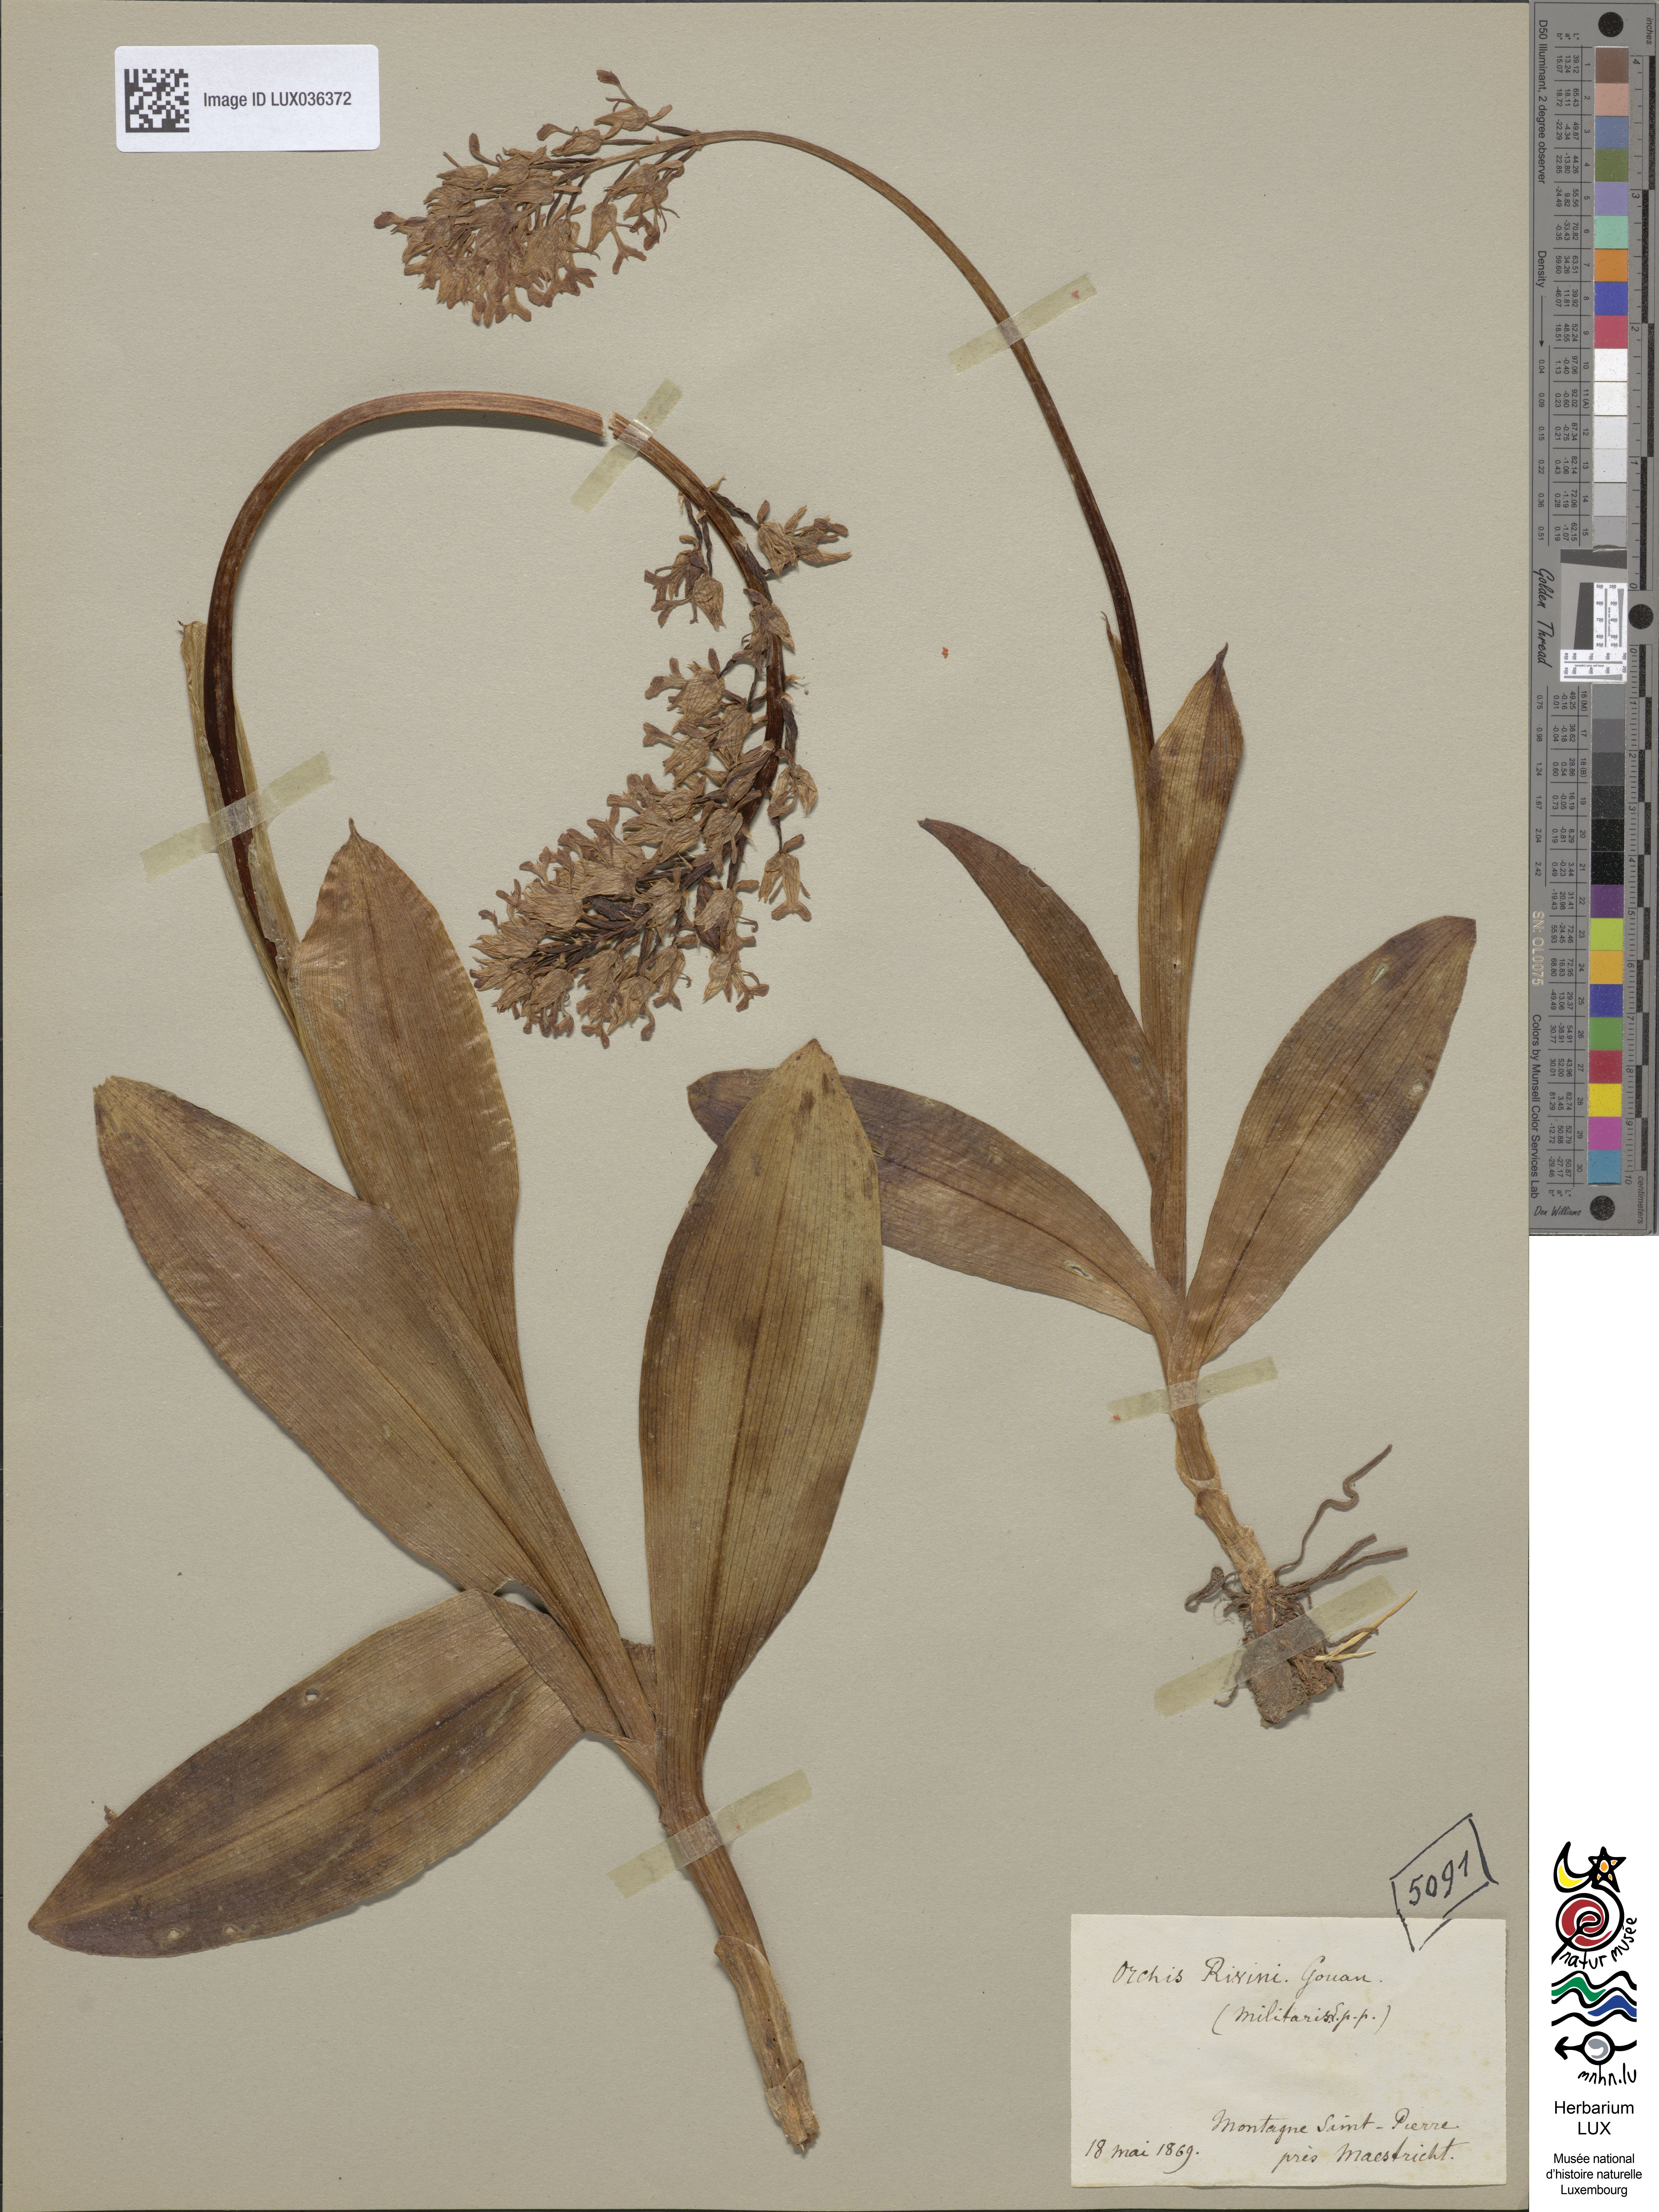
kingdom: Plantae
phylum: Tracheophyta
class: Liliopsida
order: Asparagales
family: Orchidaceae
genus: Orchis
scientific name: Orchis militaris
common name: Military orchid
